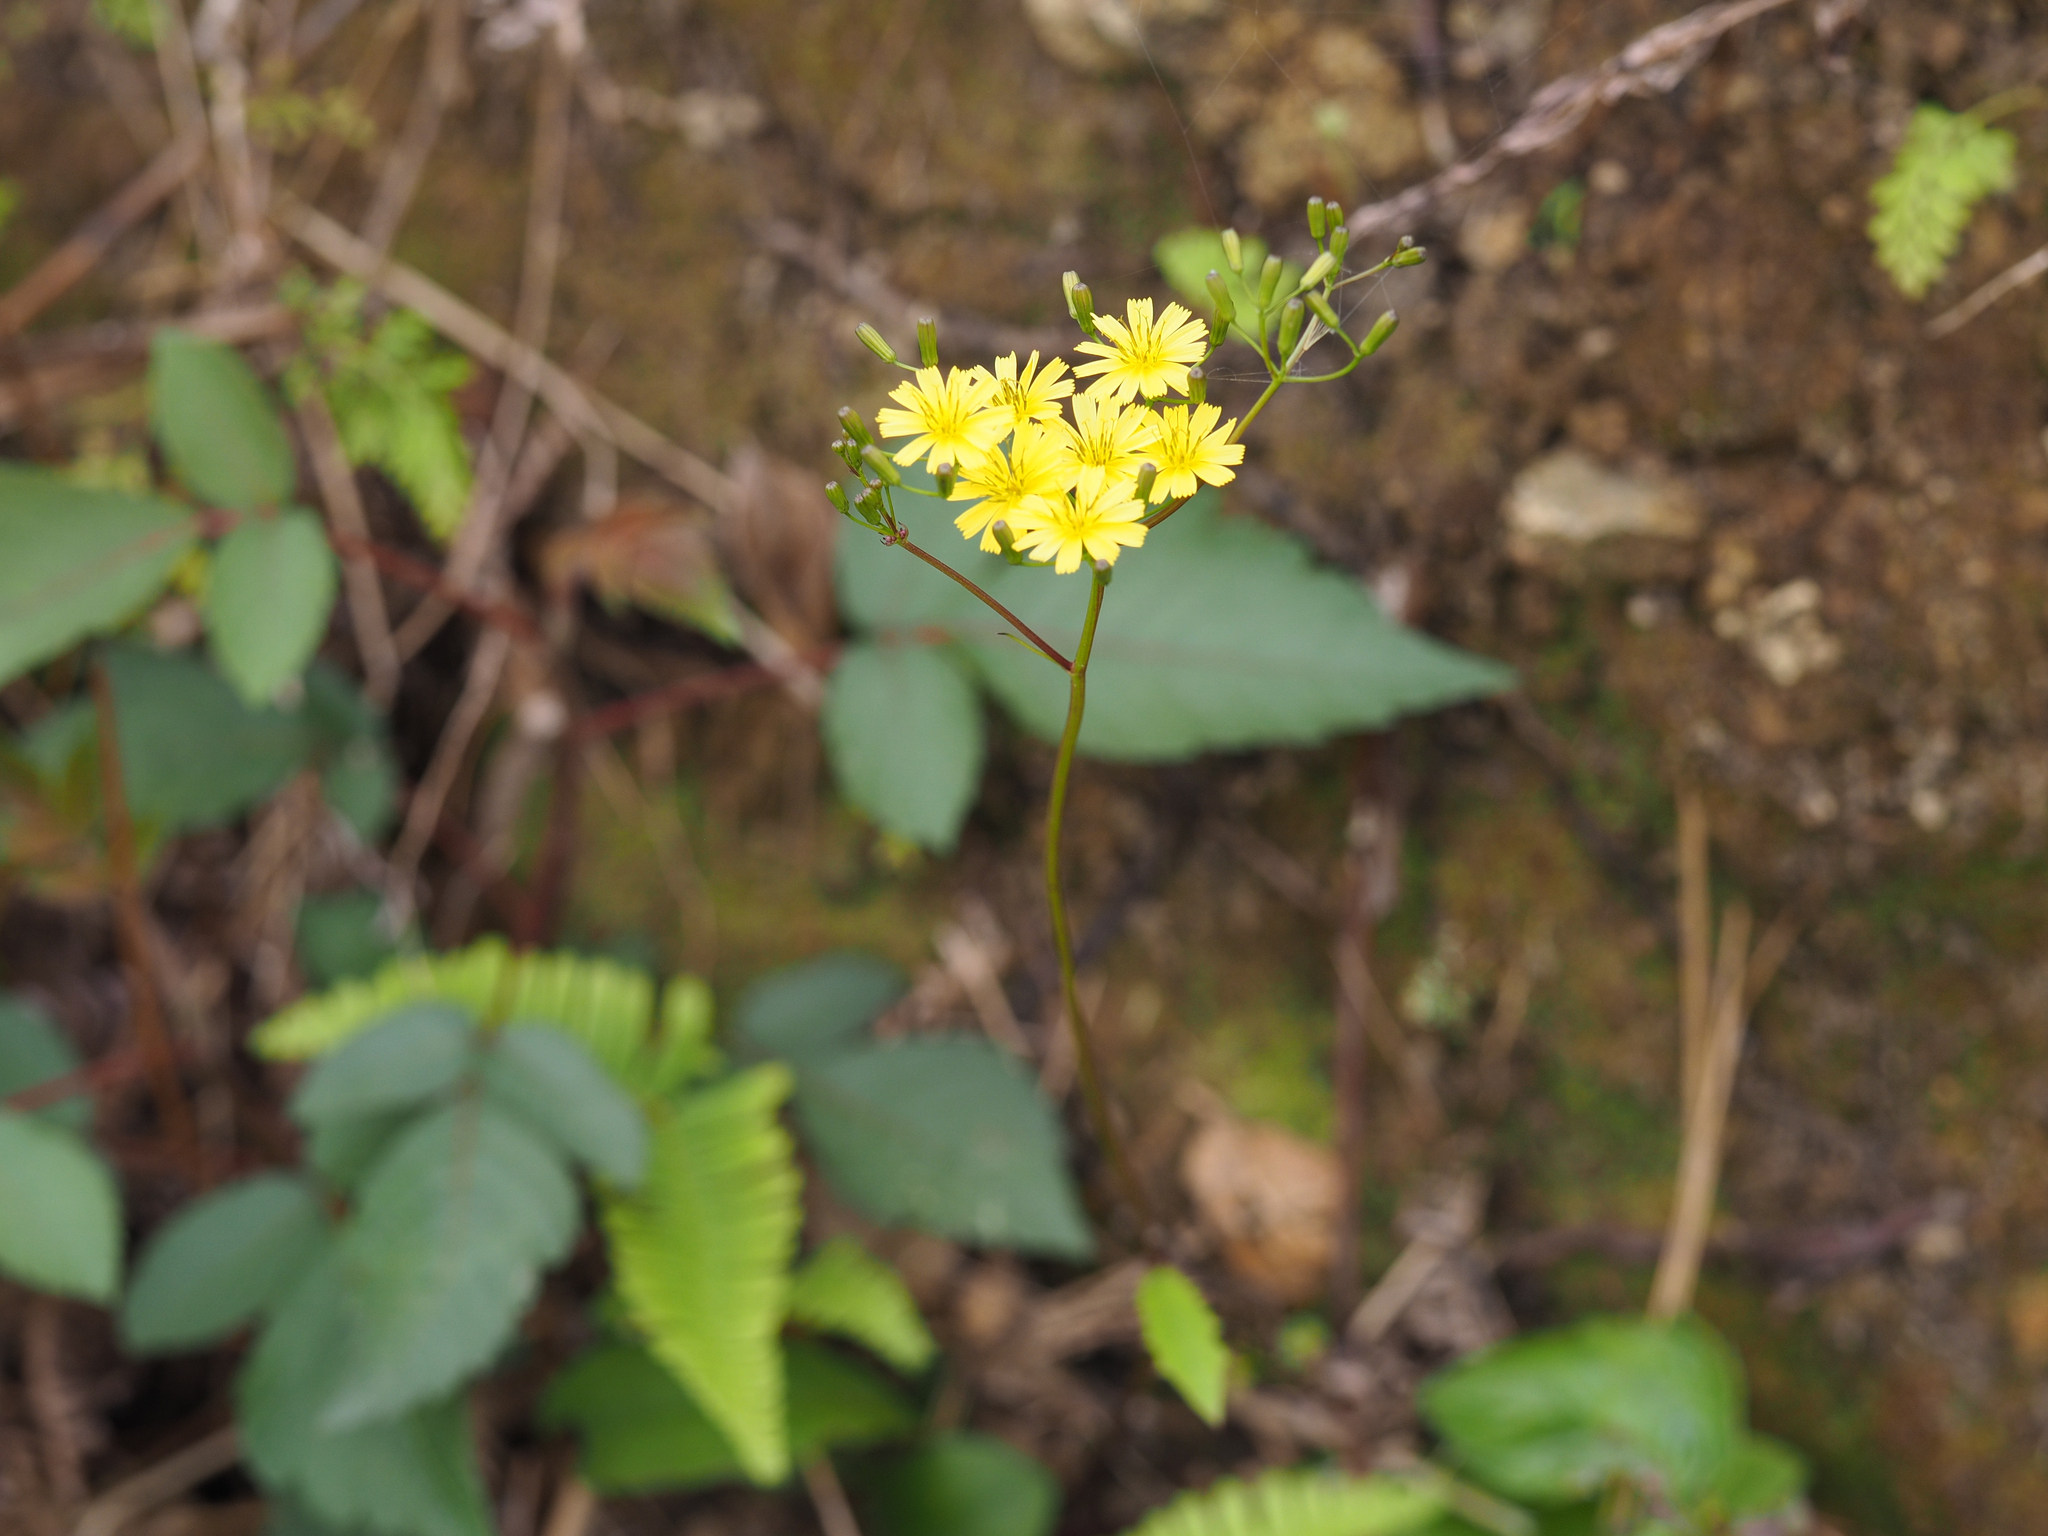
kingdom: Plantae
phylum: Tracheophyta
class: Magnoliopsida
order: Asterales
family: Asteraceae
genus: Ixeridium
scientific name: Ixeridium laevigatum
